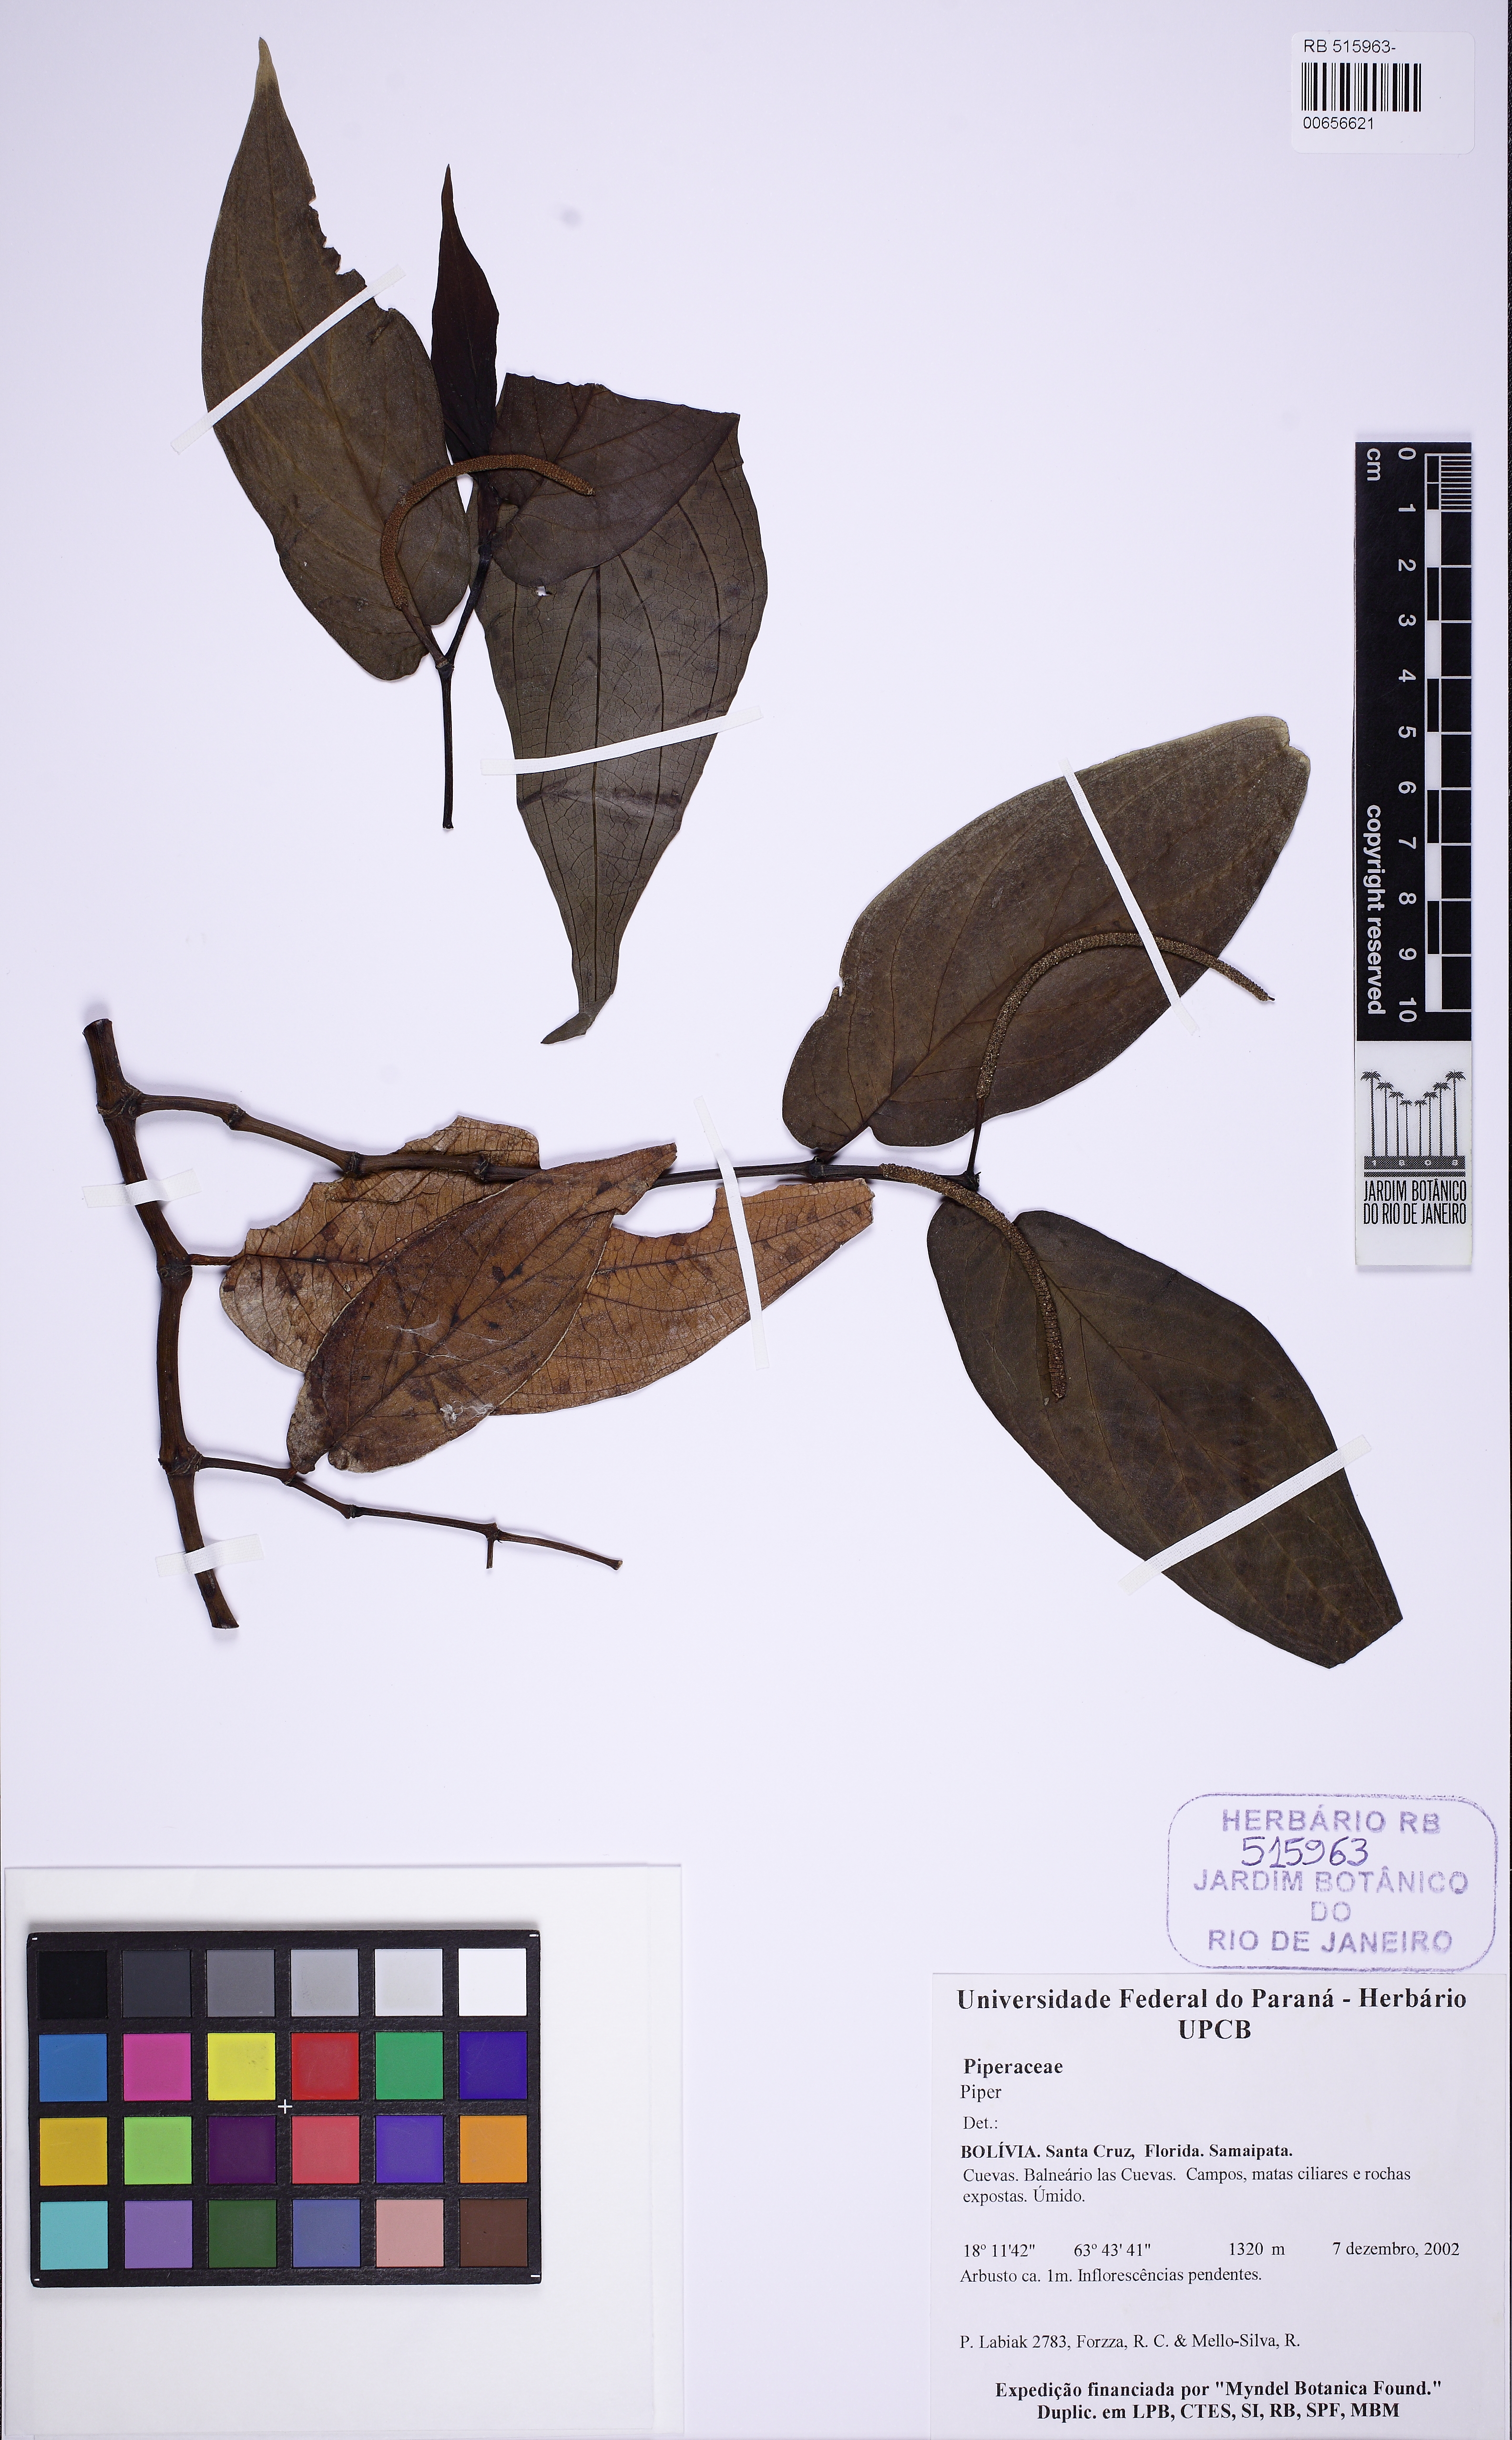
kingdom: Plantae
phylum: Tracheophyta
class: Magnoliopsida
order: Piperales
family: Piperaceae
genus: Piper
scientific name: Piper
